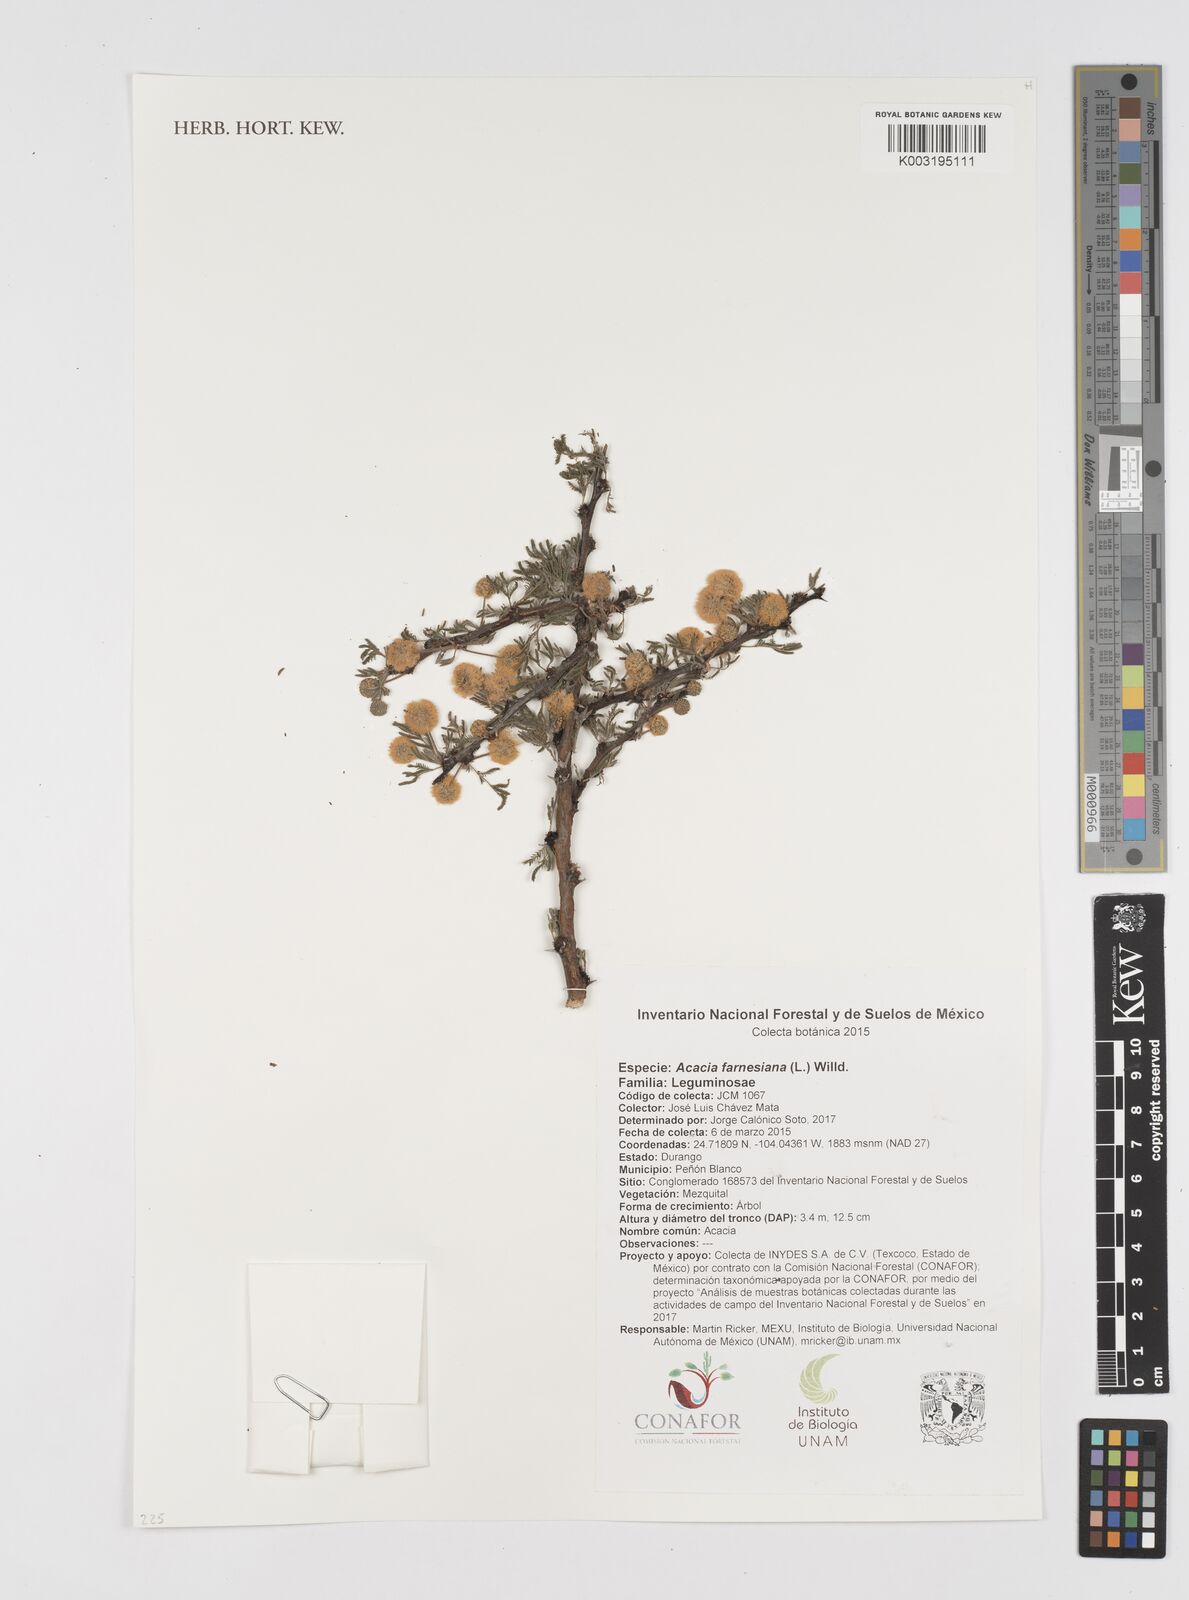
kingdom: Plantae
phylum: Tracheophyta
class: Magnoliopsida
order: Fabales
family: Fabaceae
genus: Vachellia
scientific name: Vachellia farnesiana
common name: Sweet acacia
